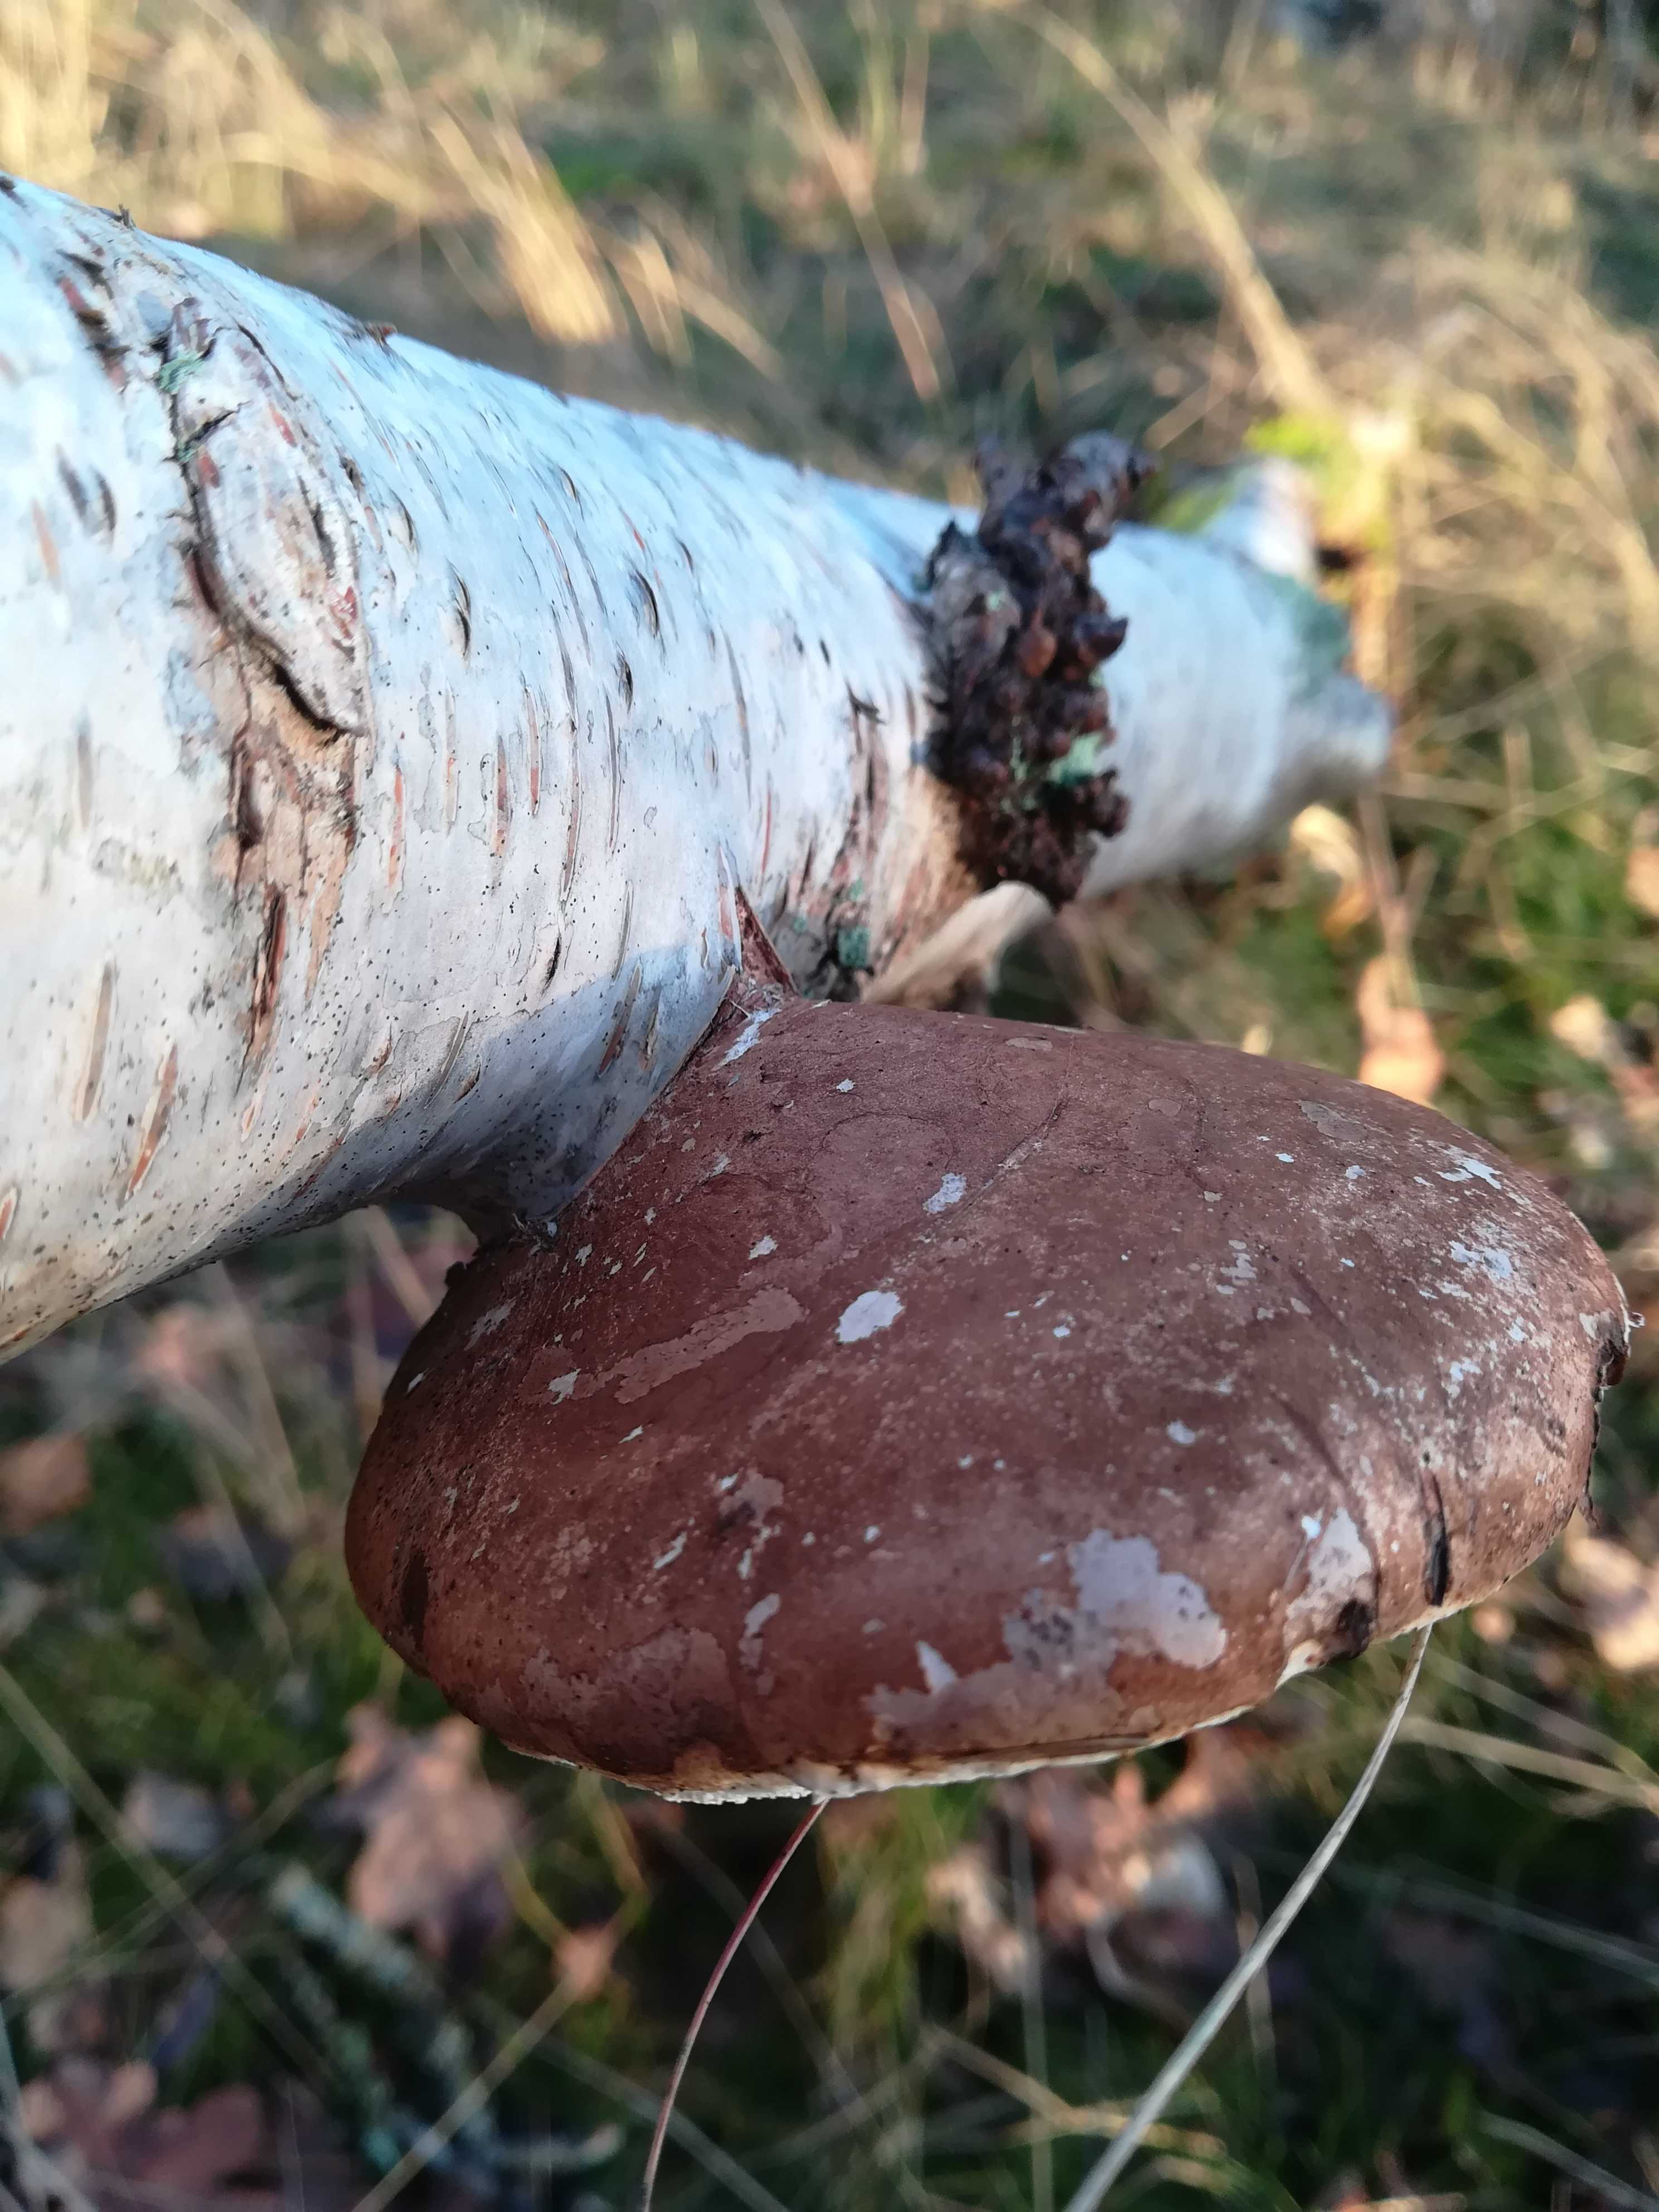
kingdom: Fungi
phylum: Basidiomycota
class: Agaricomycetes
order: Polyporales
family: Fomitopsidaceae
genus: Fomitopsis
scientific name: Fomitopsis betulina
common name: birkeporesvamp
